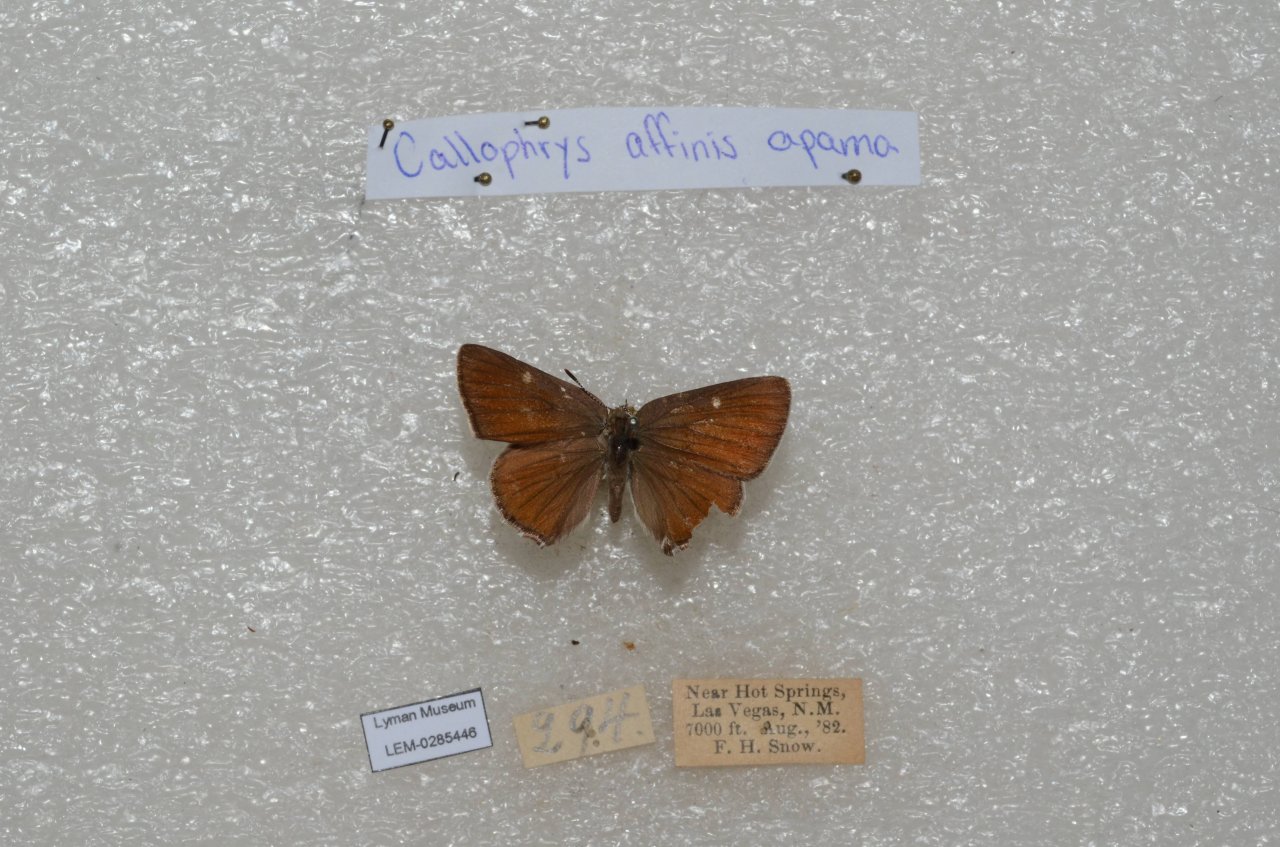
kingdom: Animalia
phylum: Arthropoda
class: Insecta
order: Lepidoptera
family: Lycaenidae
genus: Callophrys
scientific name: Callophrys affinis
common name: Western Green Hairstreak
